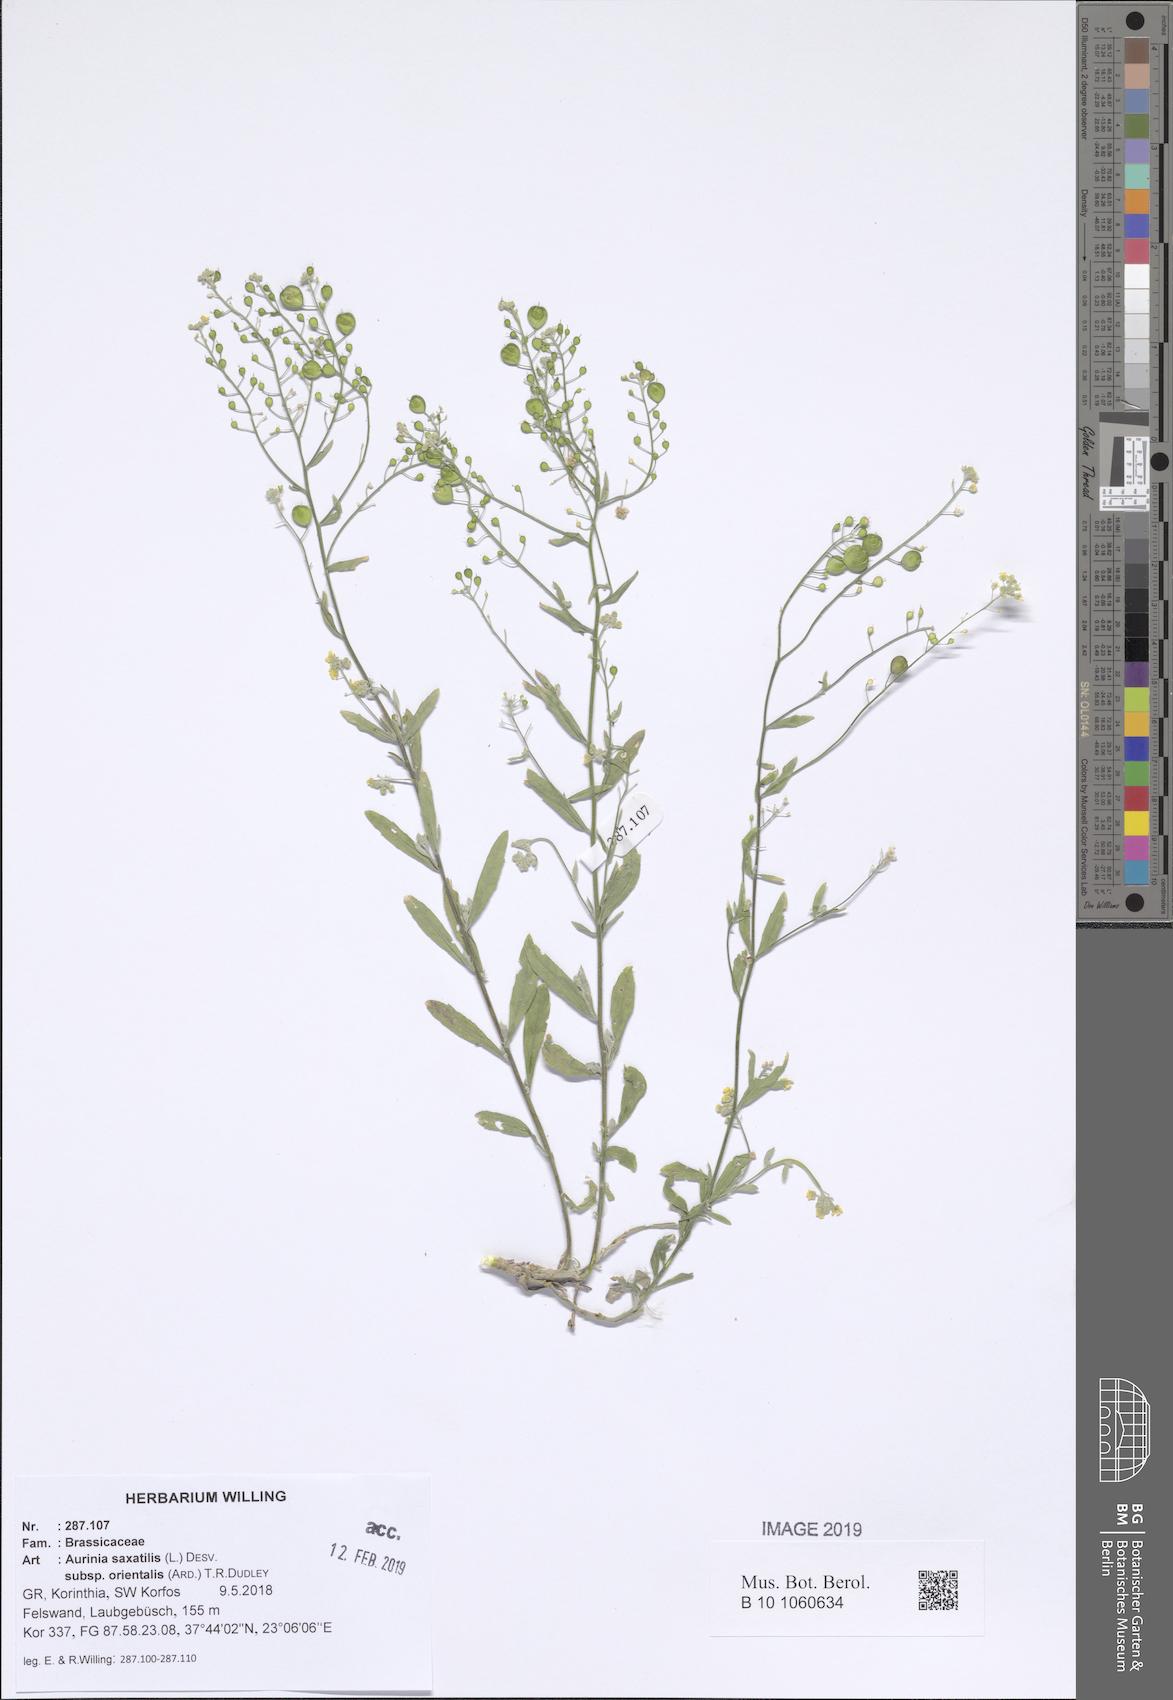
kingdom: Plantae
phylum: Tracheophyta
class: Magnoliopsida
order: Brassicales
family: Brassicaceae
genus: Aurinia
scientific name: Aurinia saxatilis
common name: Golden-tuft alyssum
